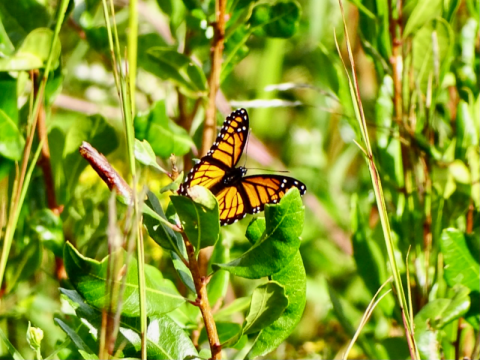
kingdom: Animalia
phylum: Arthropoda
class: Insecta
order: Lepidoptera
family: Nymphalidae
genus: Limenitis
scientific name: Limenitis archippus
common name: Viceroy
